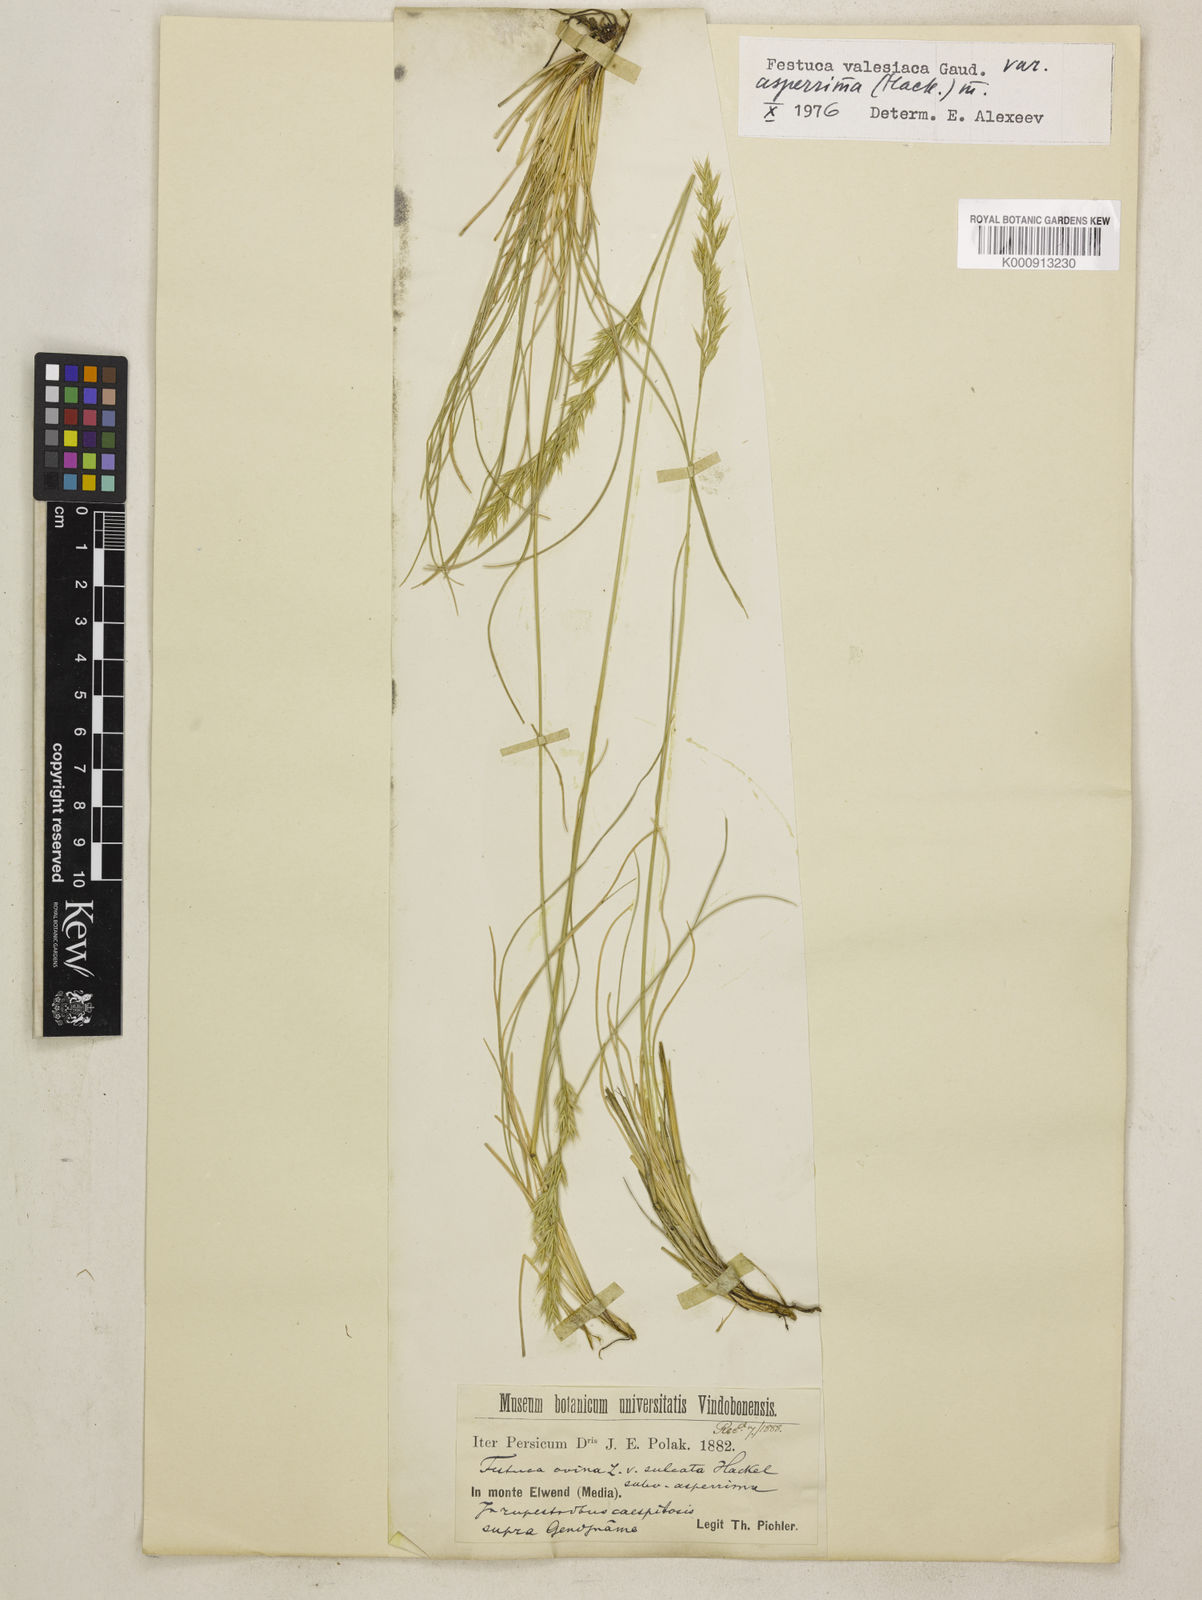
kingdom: Plantae
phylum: Tracheophyta
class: Liliopsida
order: Poales
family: Poaceae
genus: Festuca
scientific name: Festuca valesiaca
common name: Volga fescue
